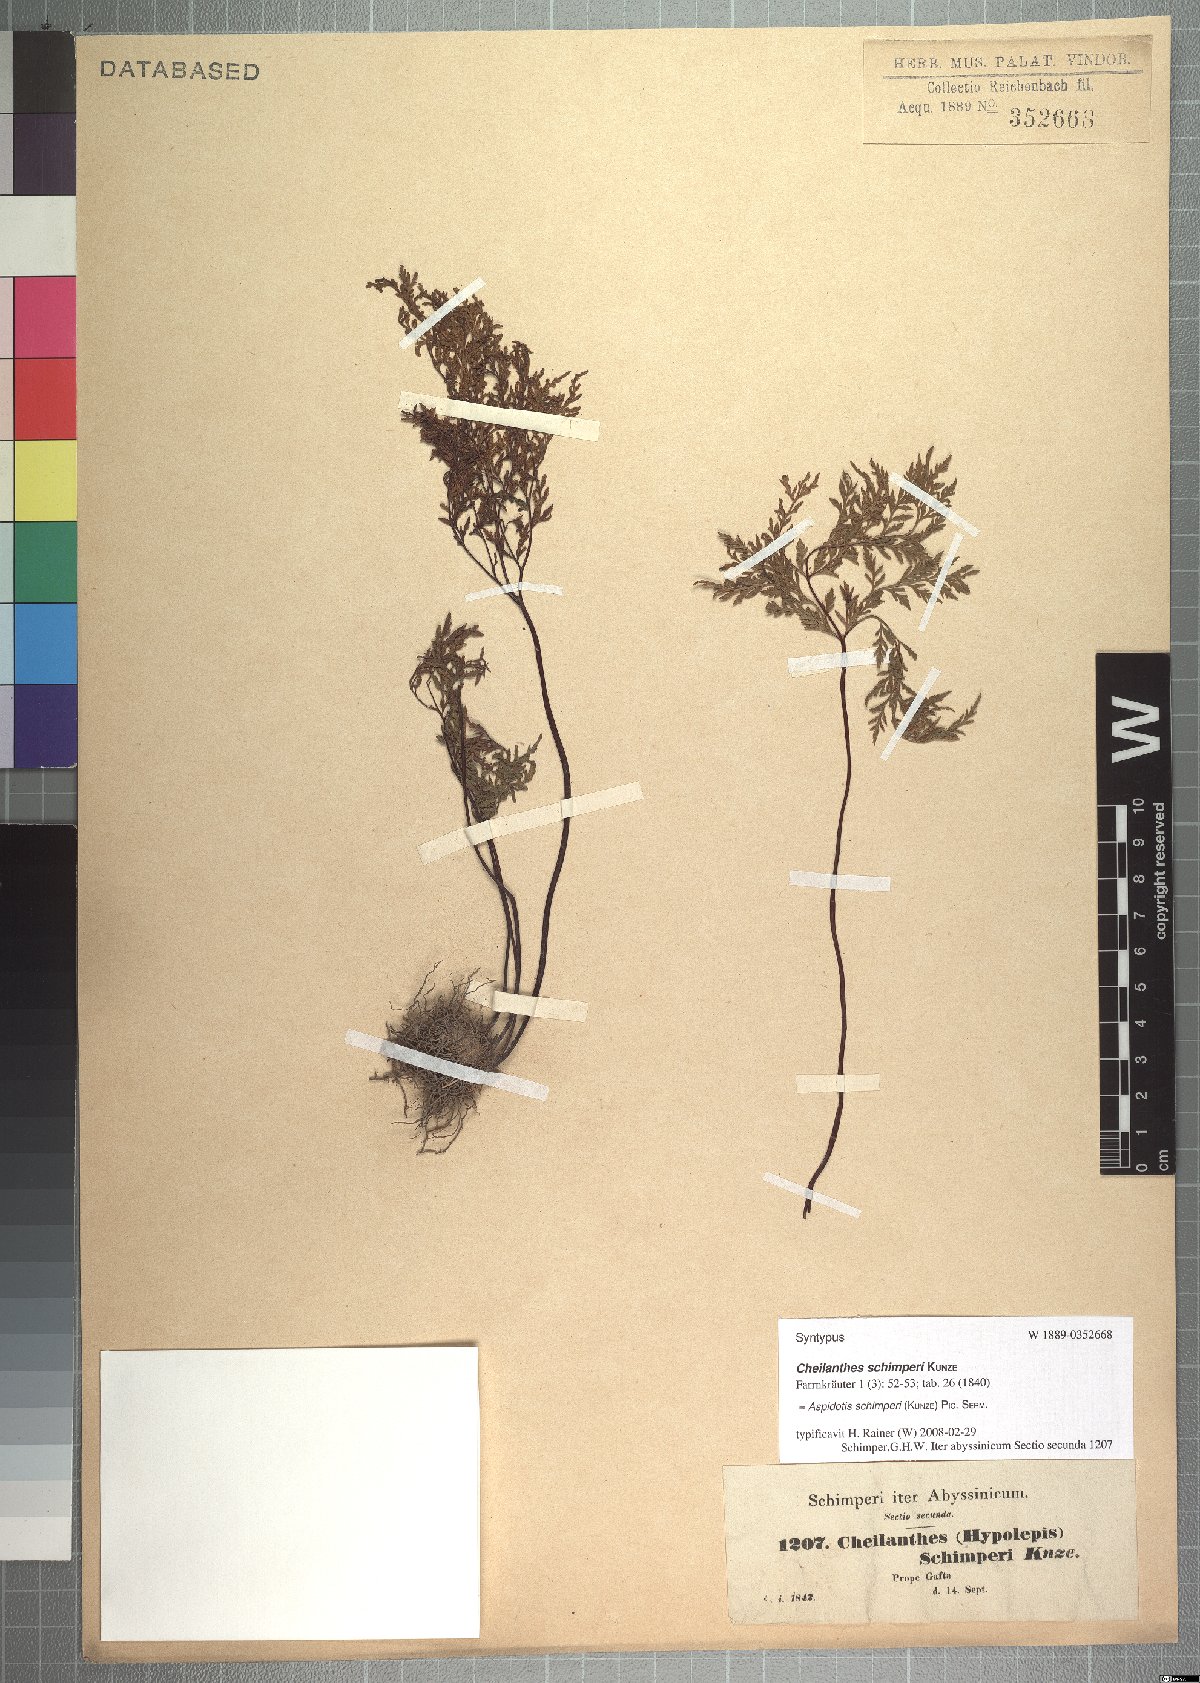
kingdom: Plantae
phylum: Tracheophyta
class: Polypodiopsida
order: Polypodiales
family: Pteridaceae
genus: Cheilanthes
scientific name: Cheilanthes schimperi
